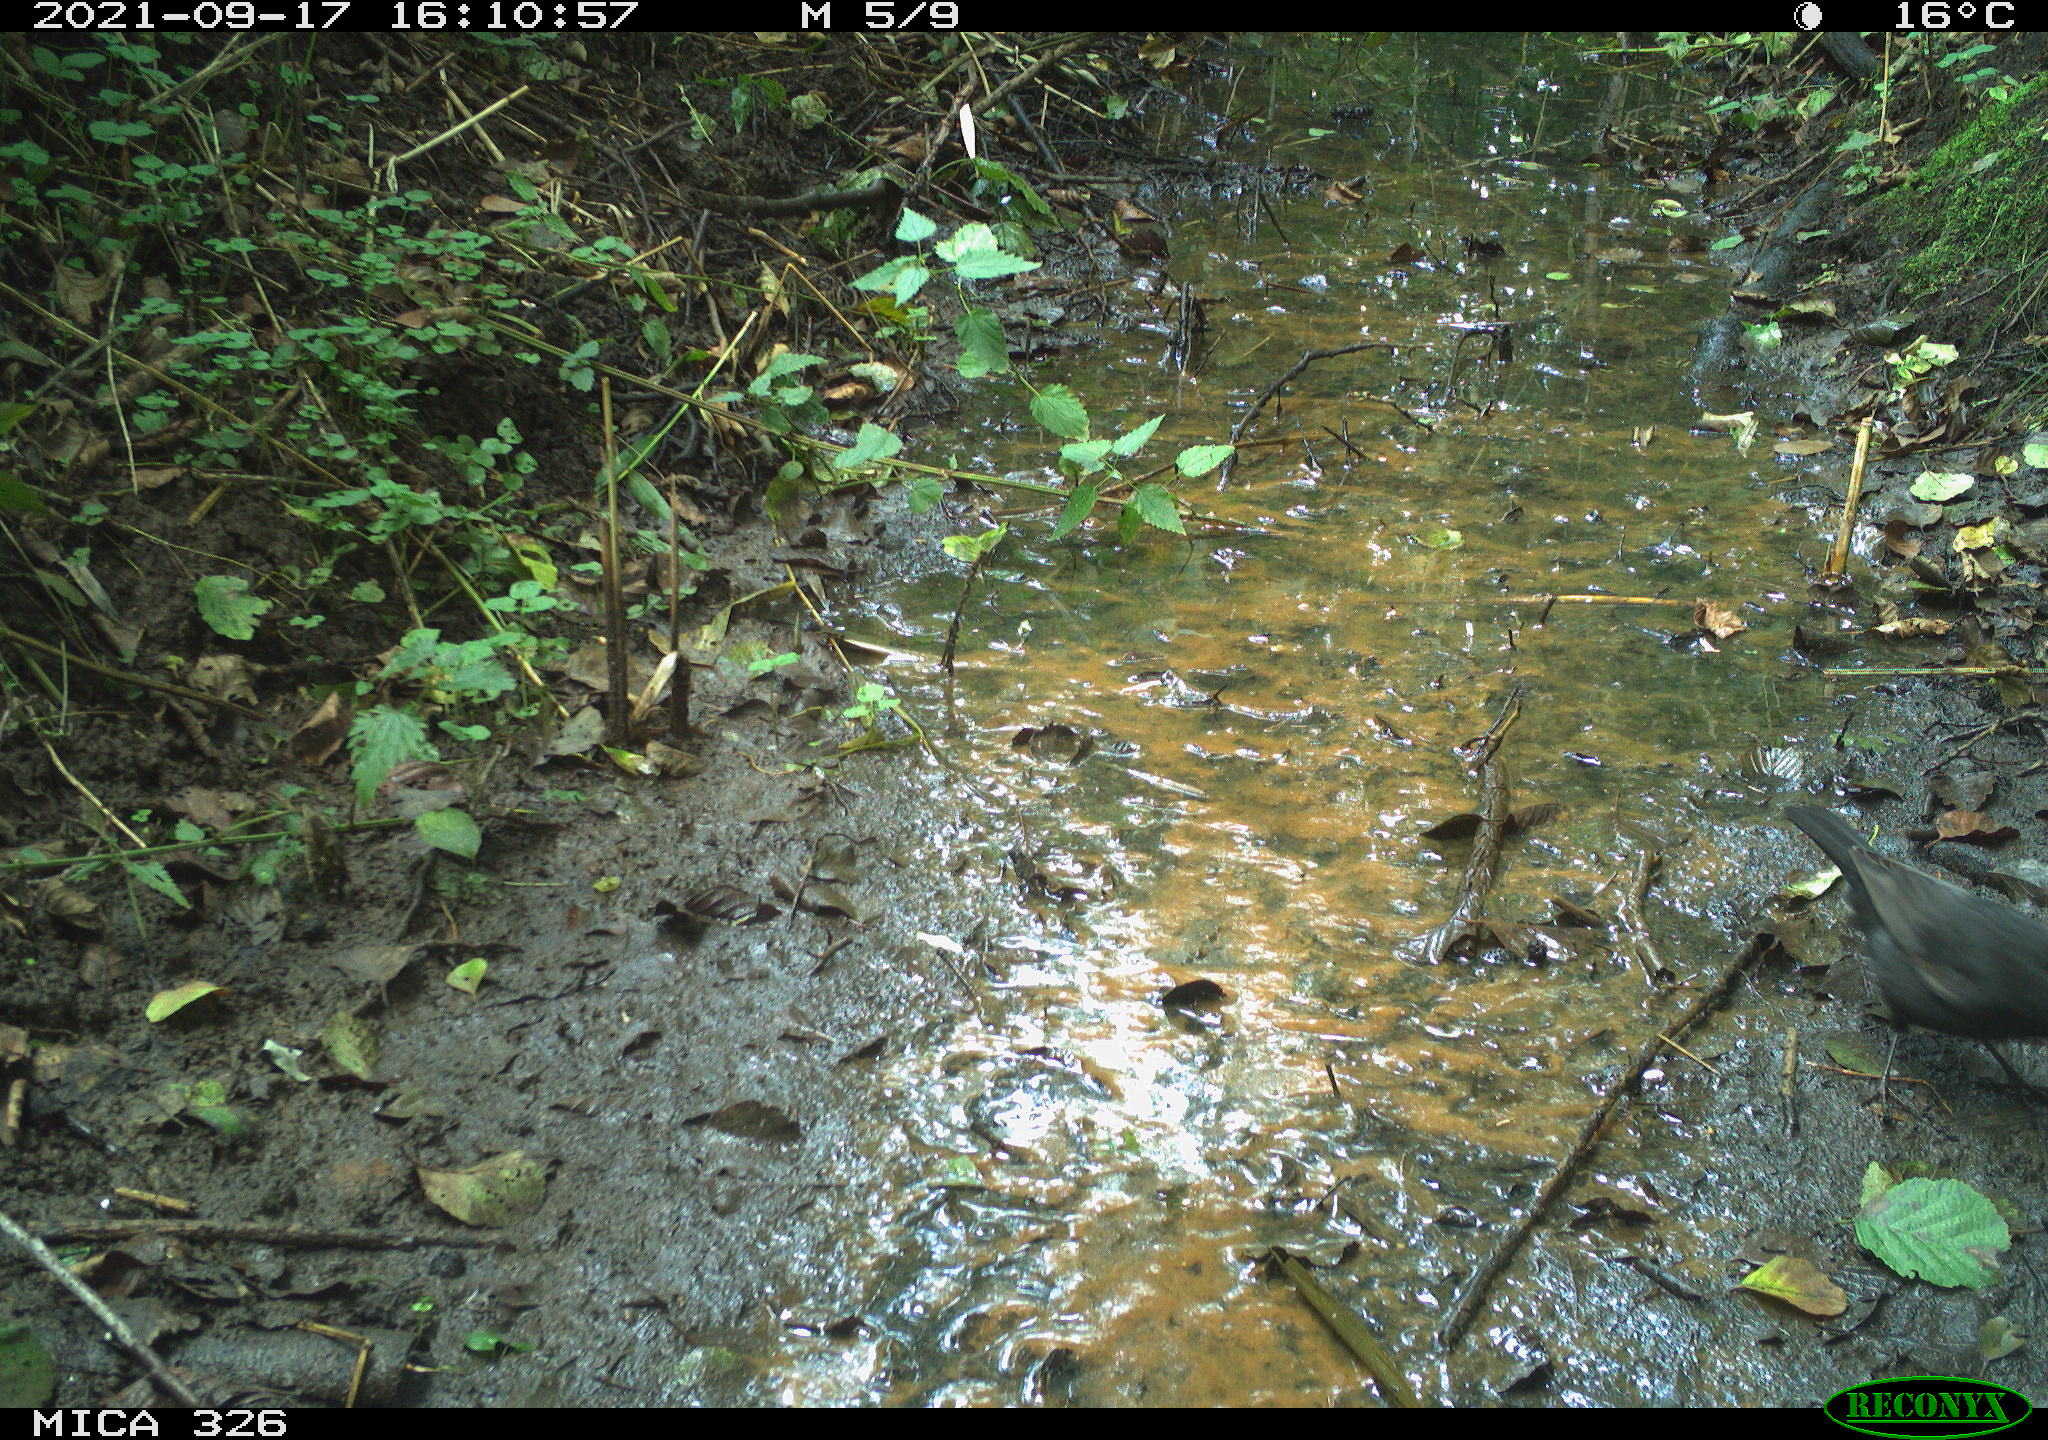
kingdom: Animalia
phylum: Chordata
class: Aves
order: Passeriformes
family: Turdidae
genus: Turdus
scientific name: Turdus merula
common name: Common blackbird
